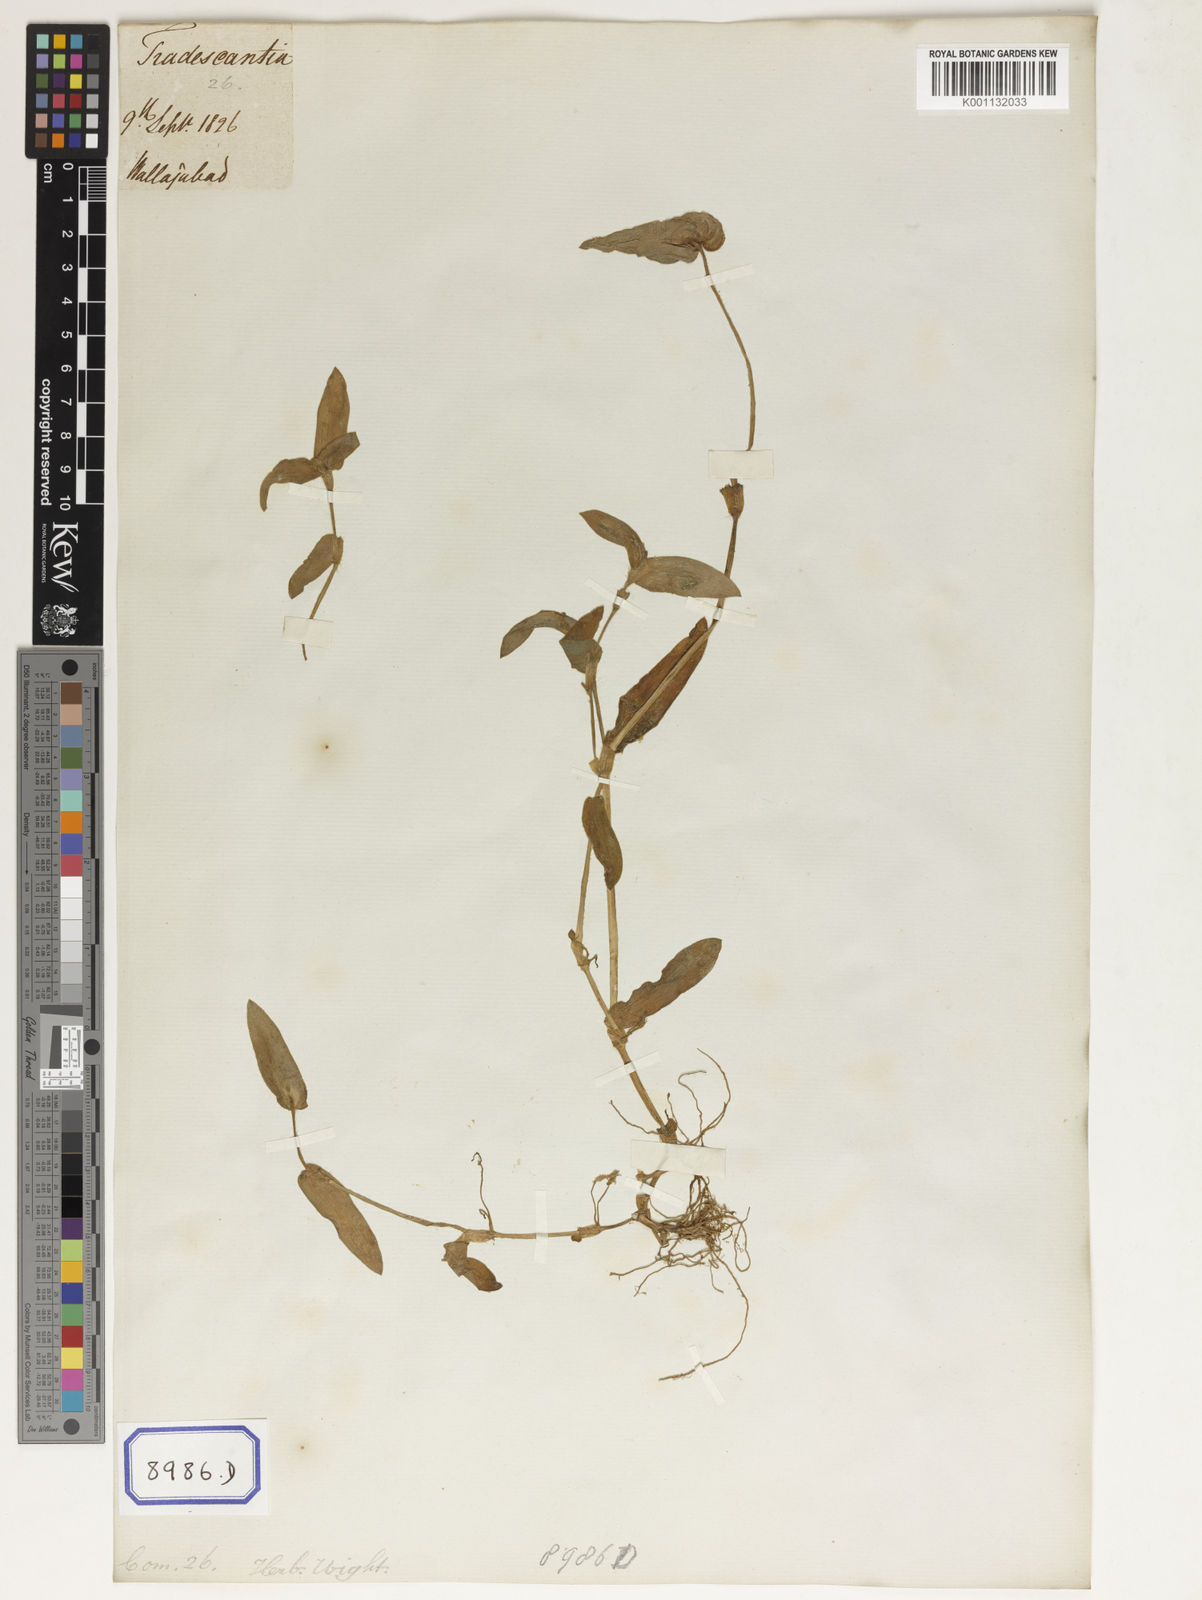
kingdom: Plantae
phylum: Tracheophyta
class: Liliopsida
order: Commelinales
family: Commelinaceae
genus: Cyanotis
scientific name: Cyanotis cristata
